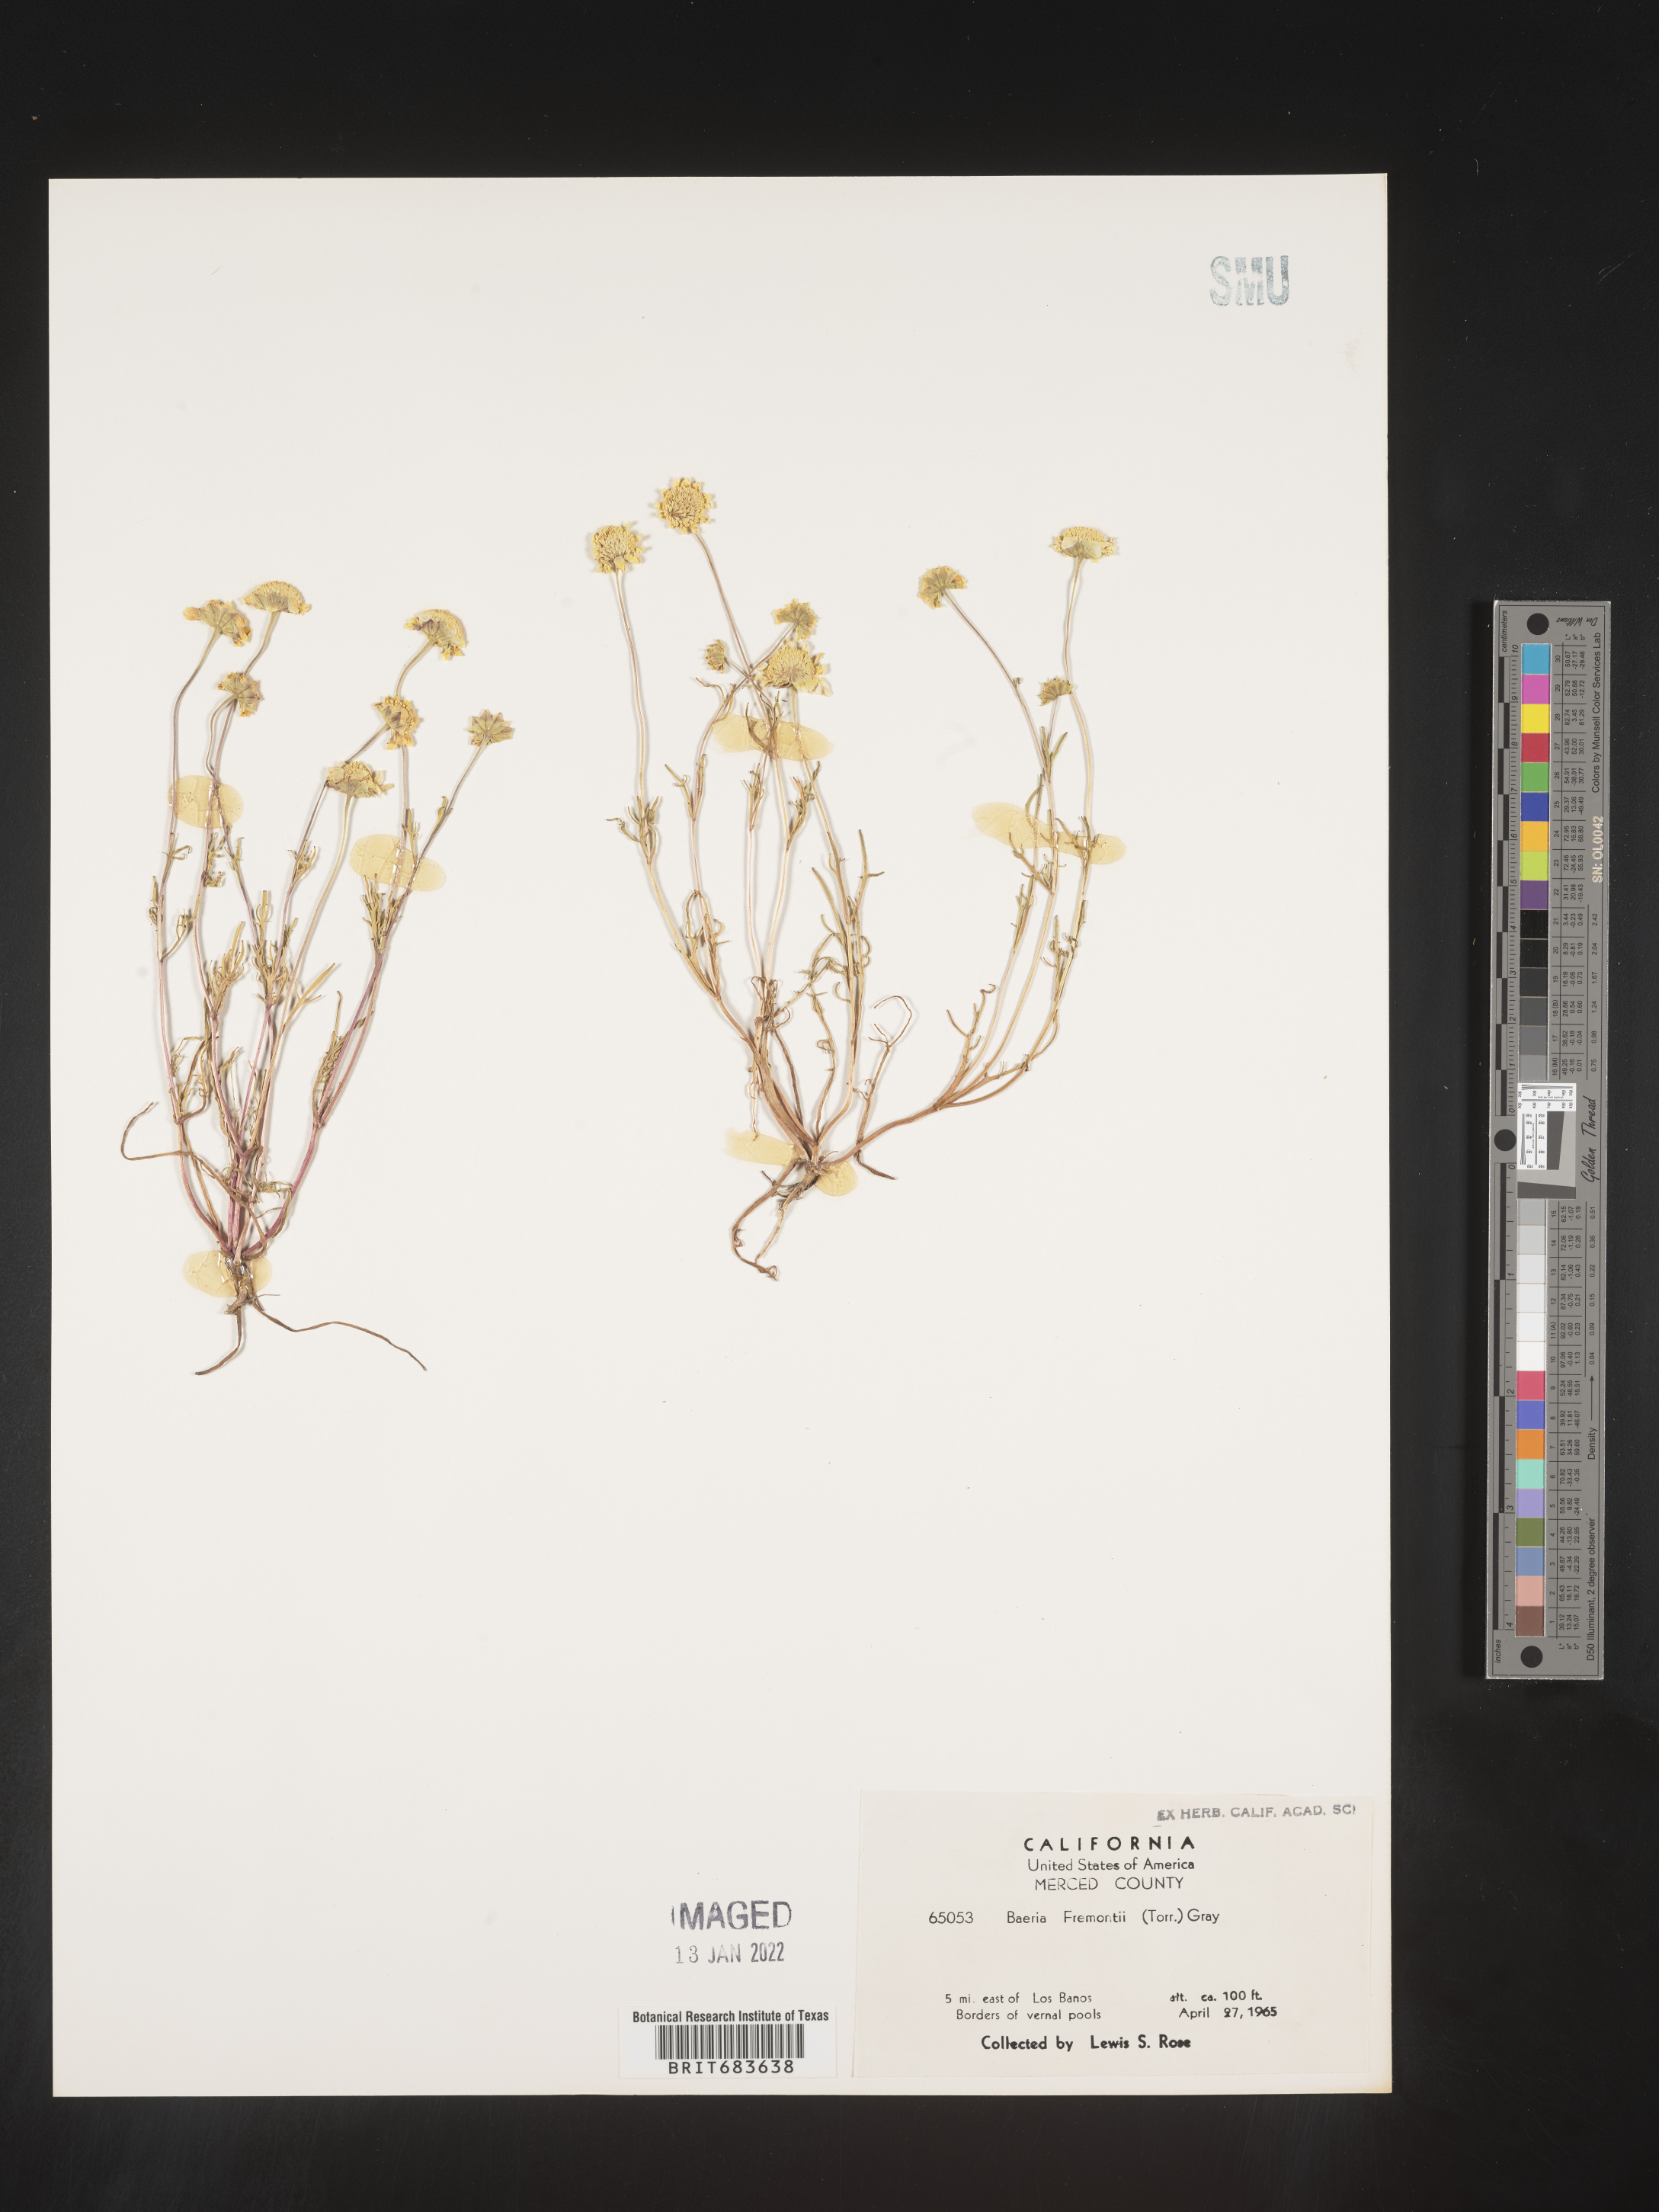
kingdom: Plantae
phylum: Tracheophyta
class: Magnoliopsida
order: Asterales
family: Asteraceae
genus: Lasthenia
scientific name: Lasthenia
